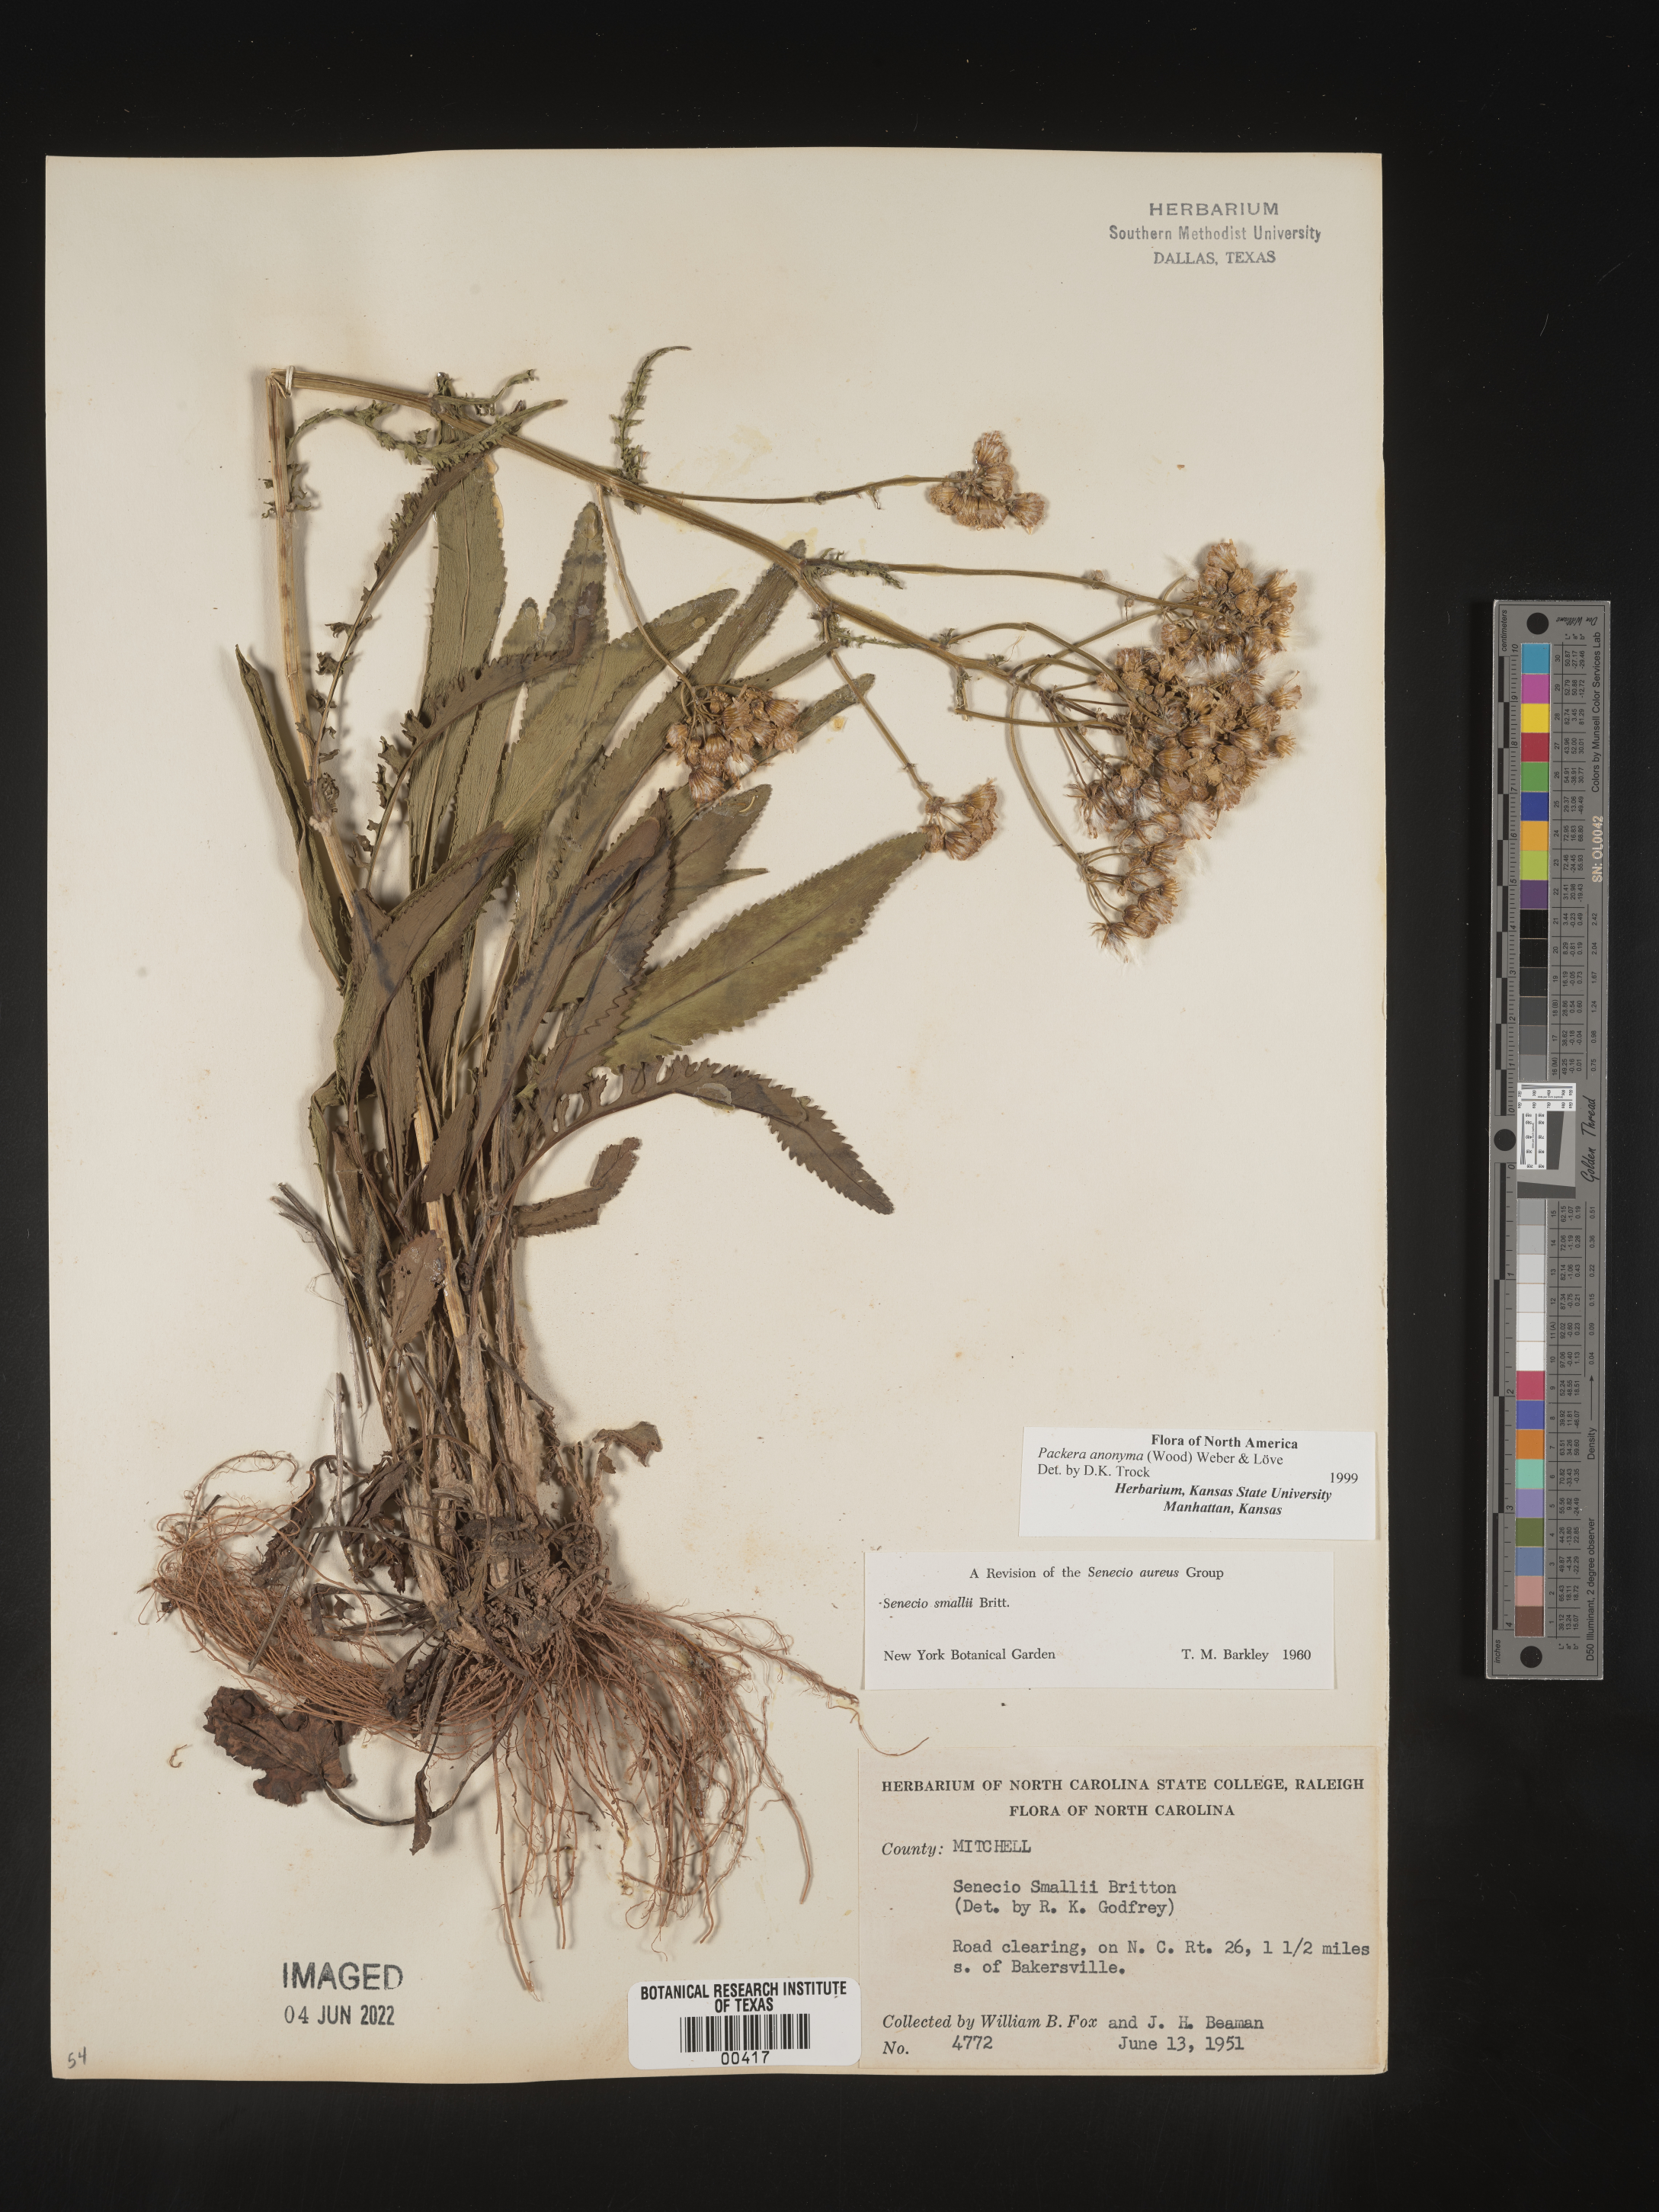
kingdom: Plantae
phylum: Tracheophyta
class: Magnoliopsida
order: Asterales
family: Asteraceae
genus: Packera
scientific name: Packera anonyma
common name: Small ragwort
